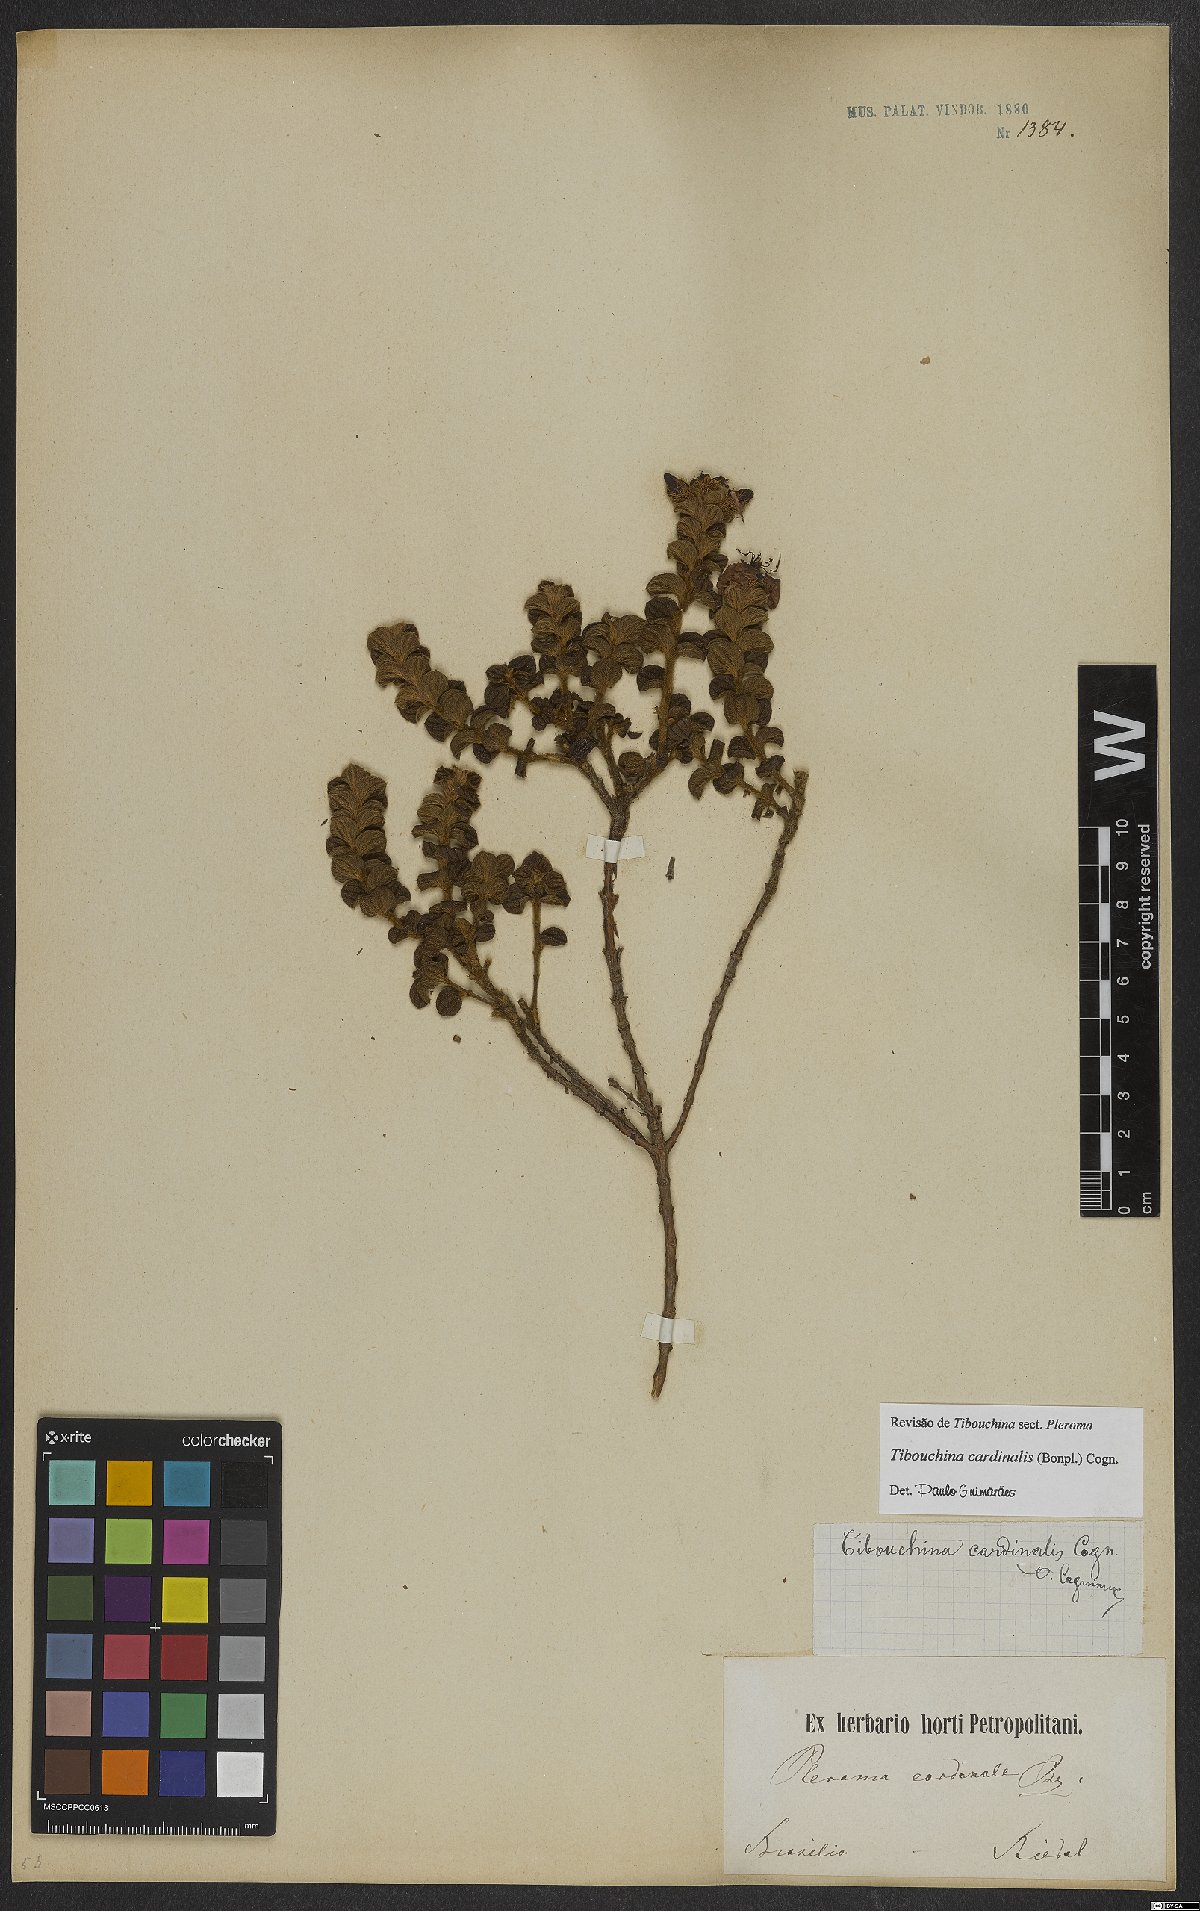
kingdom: Plantae
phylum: Tracheophyta
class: Magnoliopsida
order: Myrtales
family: Melastomataceae
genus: Chaetogastra
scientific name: Chaetogastra cardinalis
